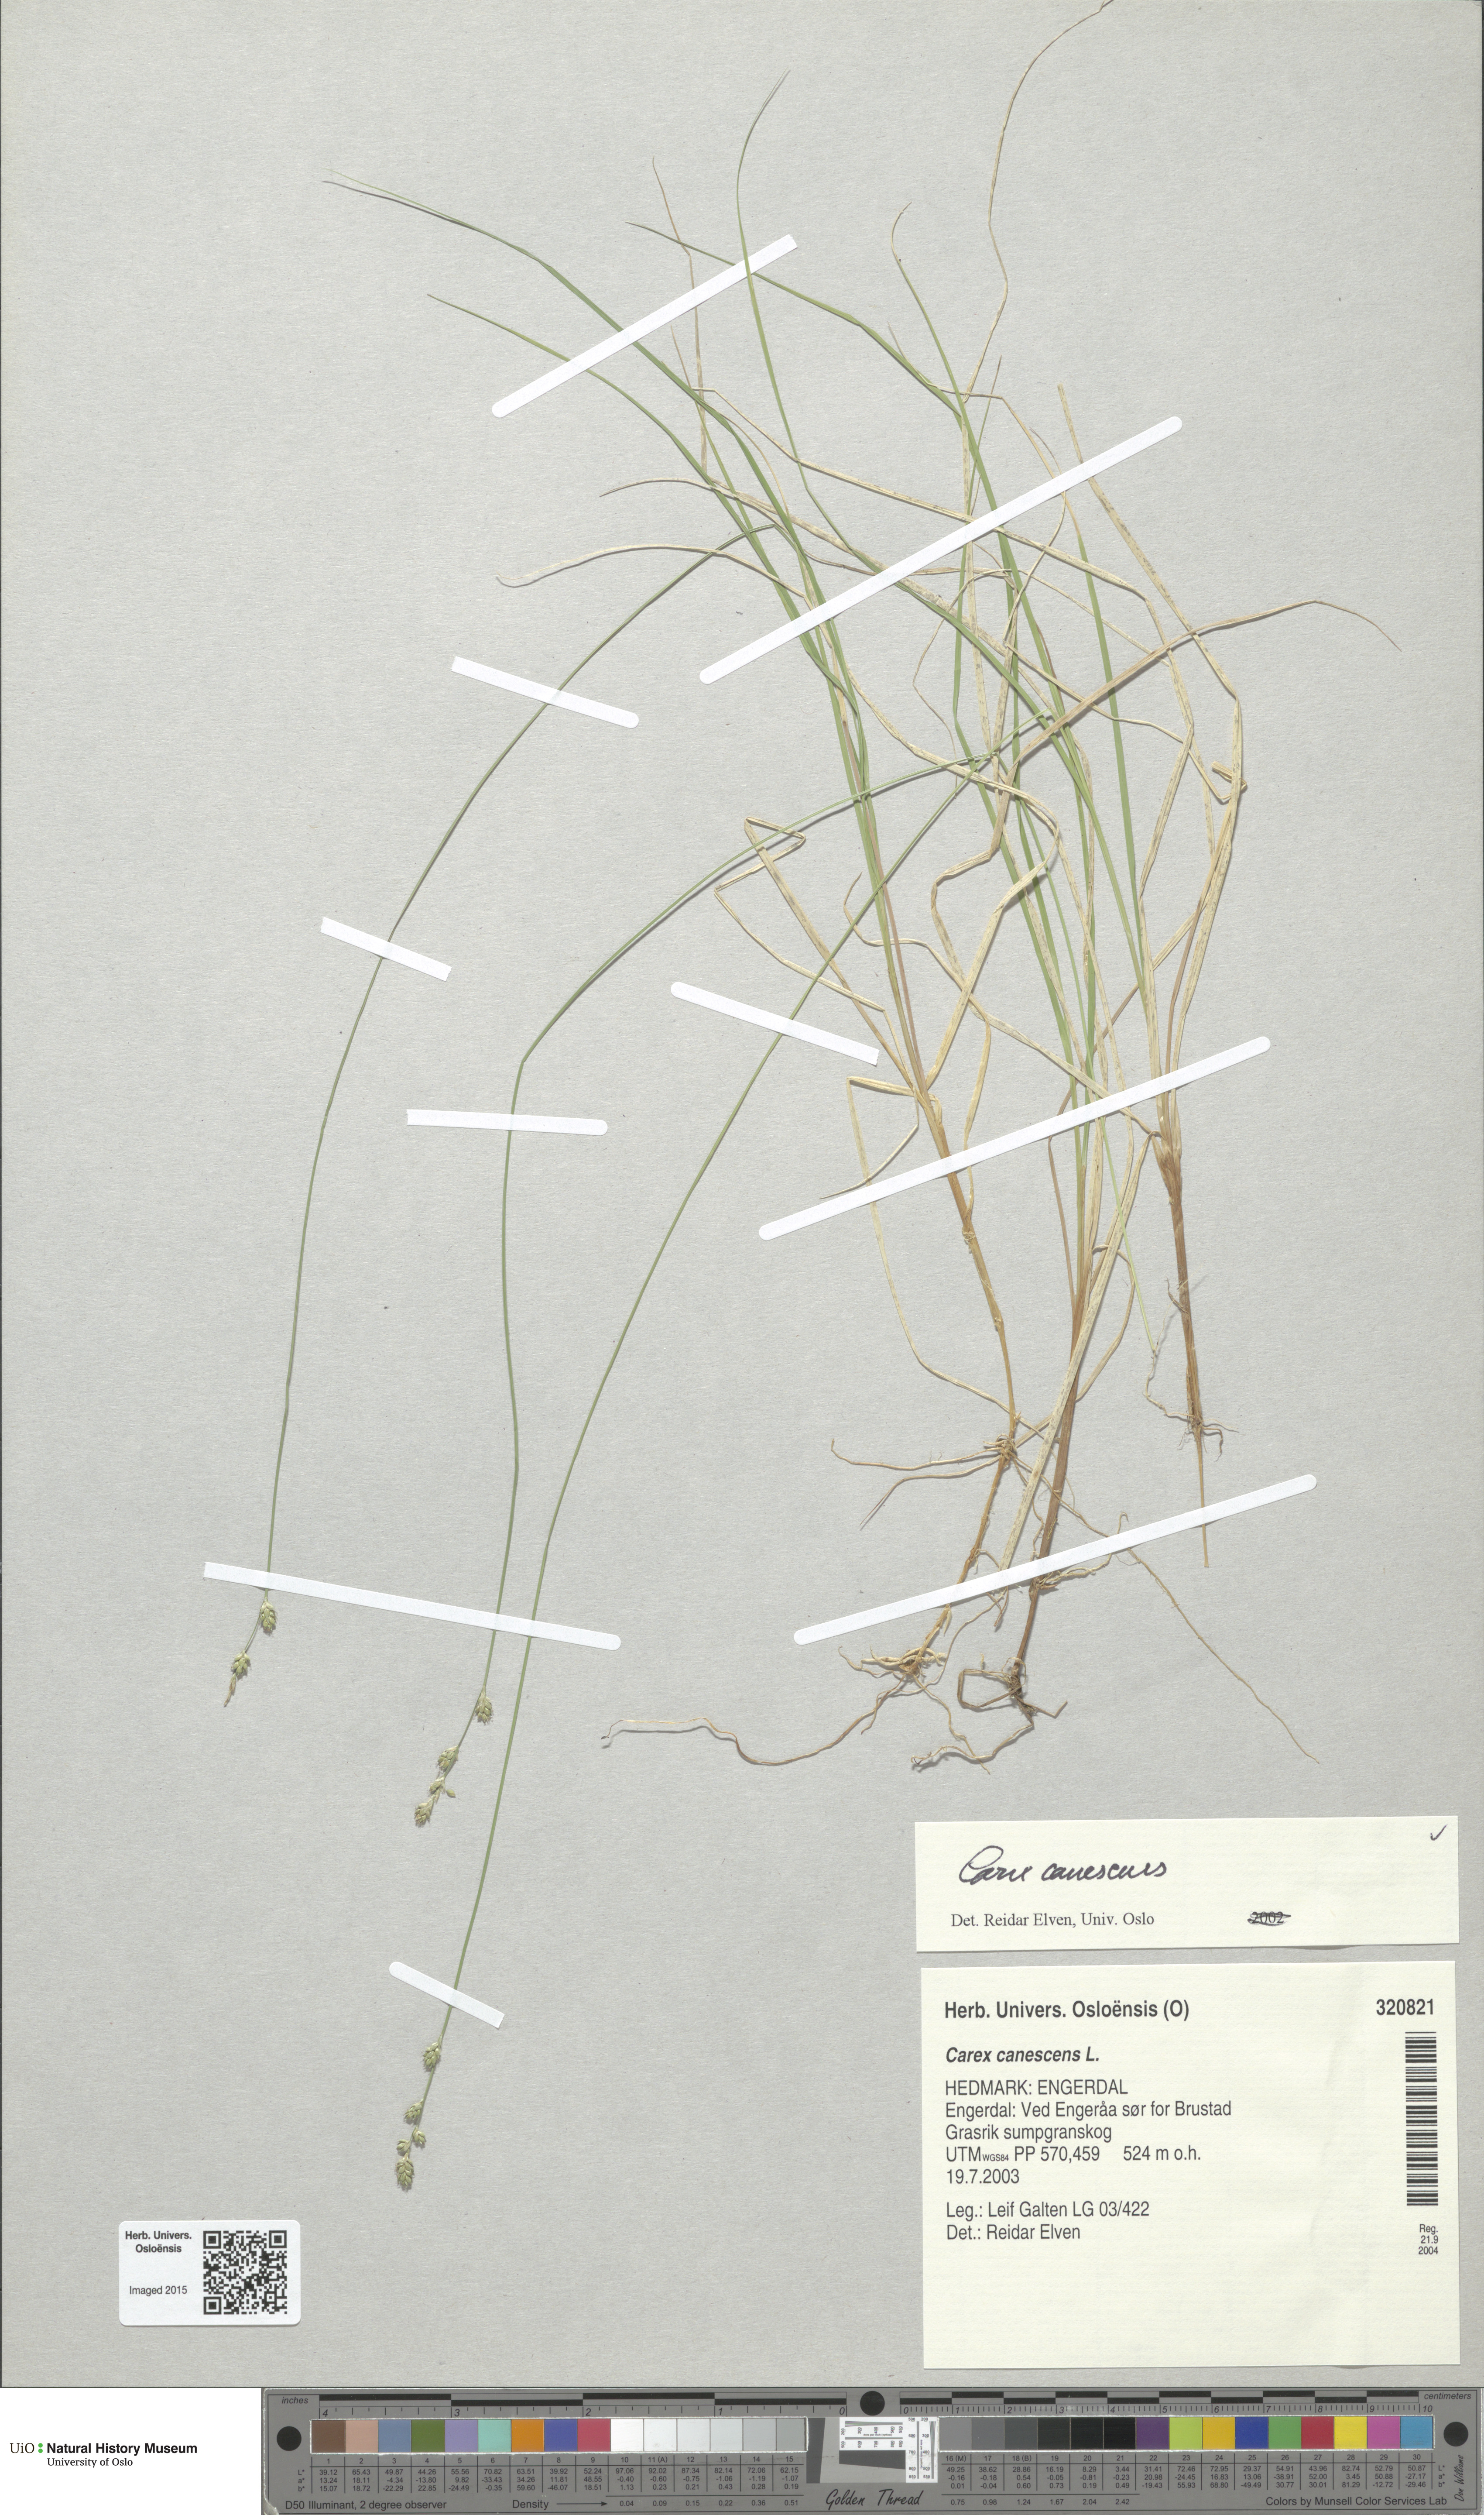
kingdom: Plantae
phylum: Tracheophyta
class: Liliopsida
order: Poales
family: Cyperaceae
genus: Carex
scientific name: Carex canescens
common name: White sedge
